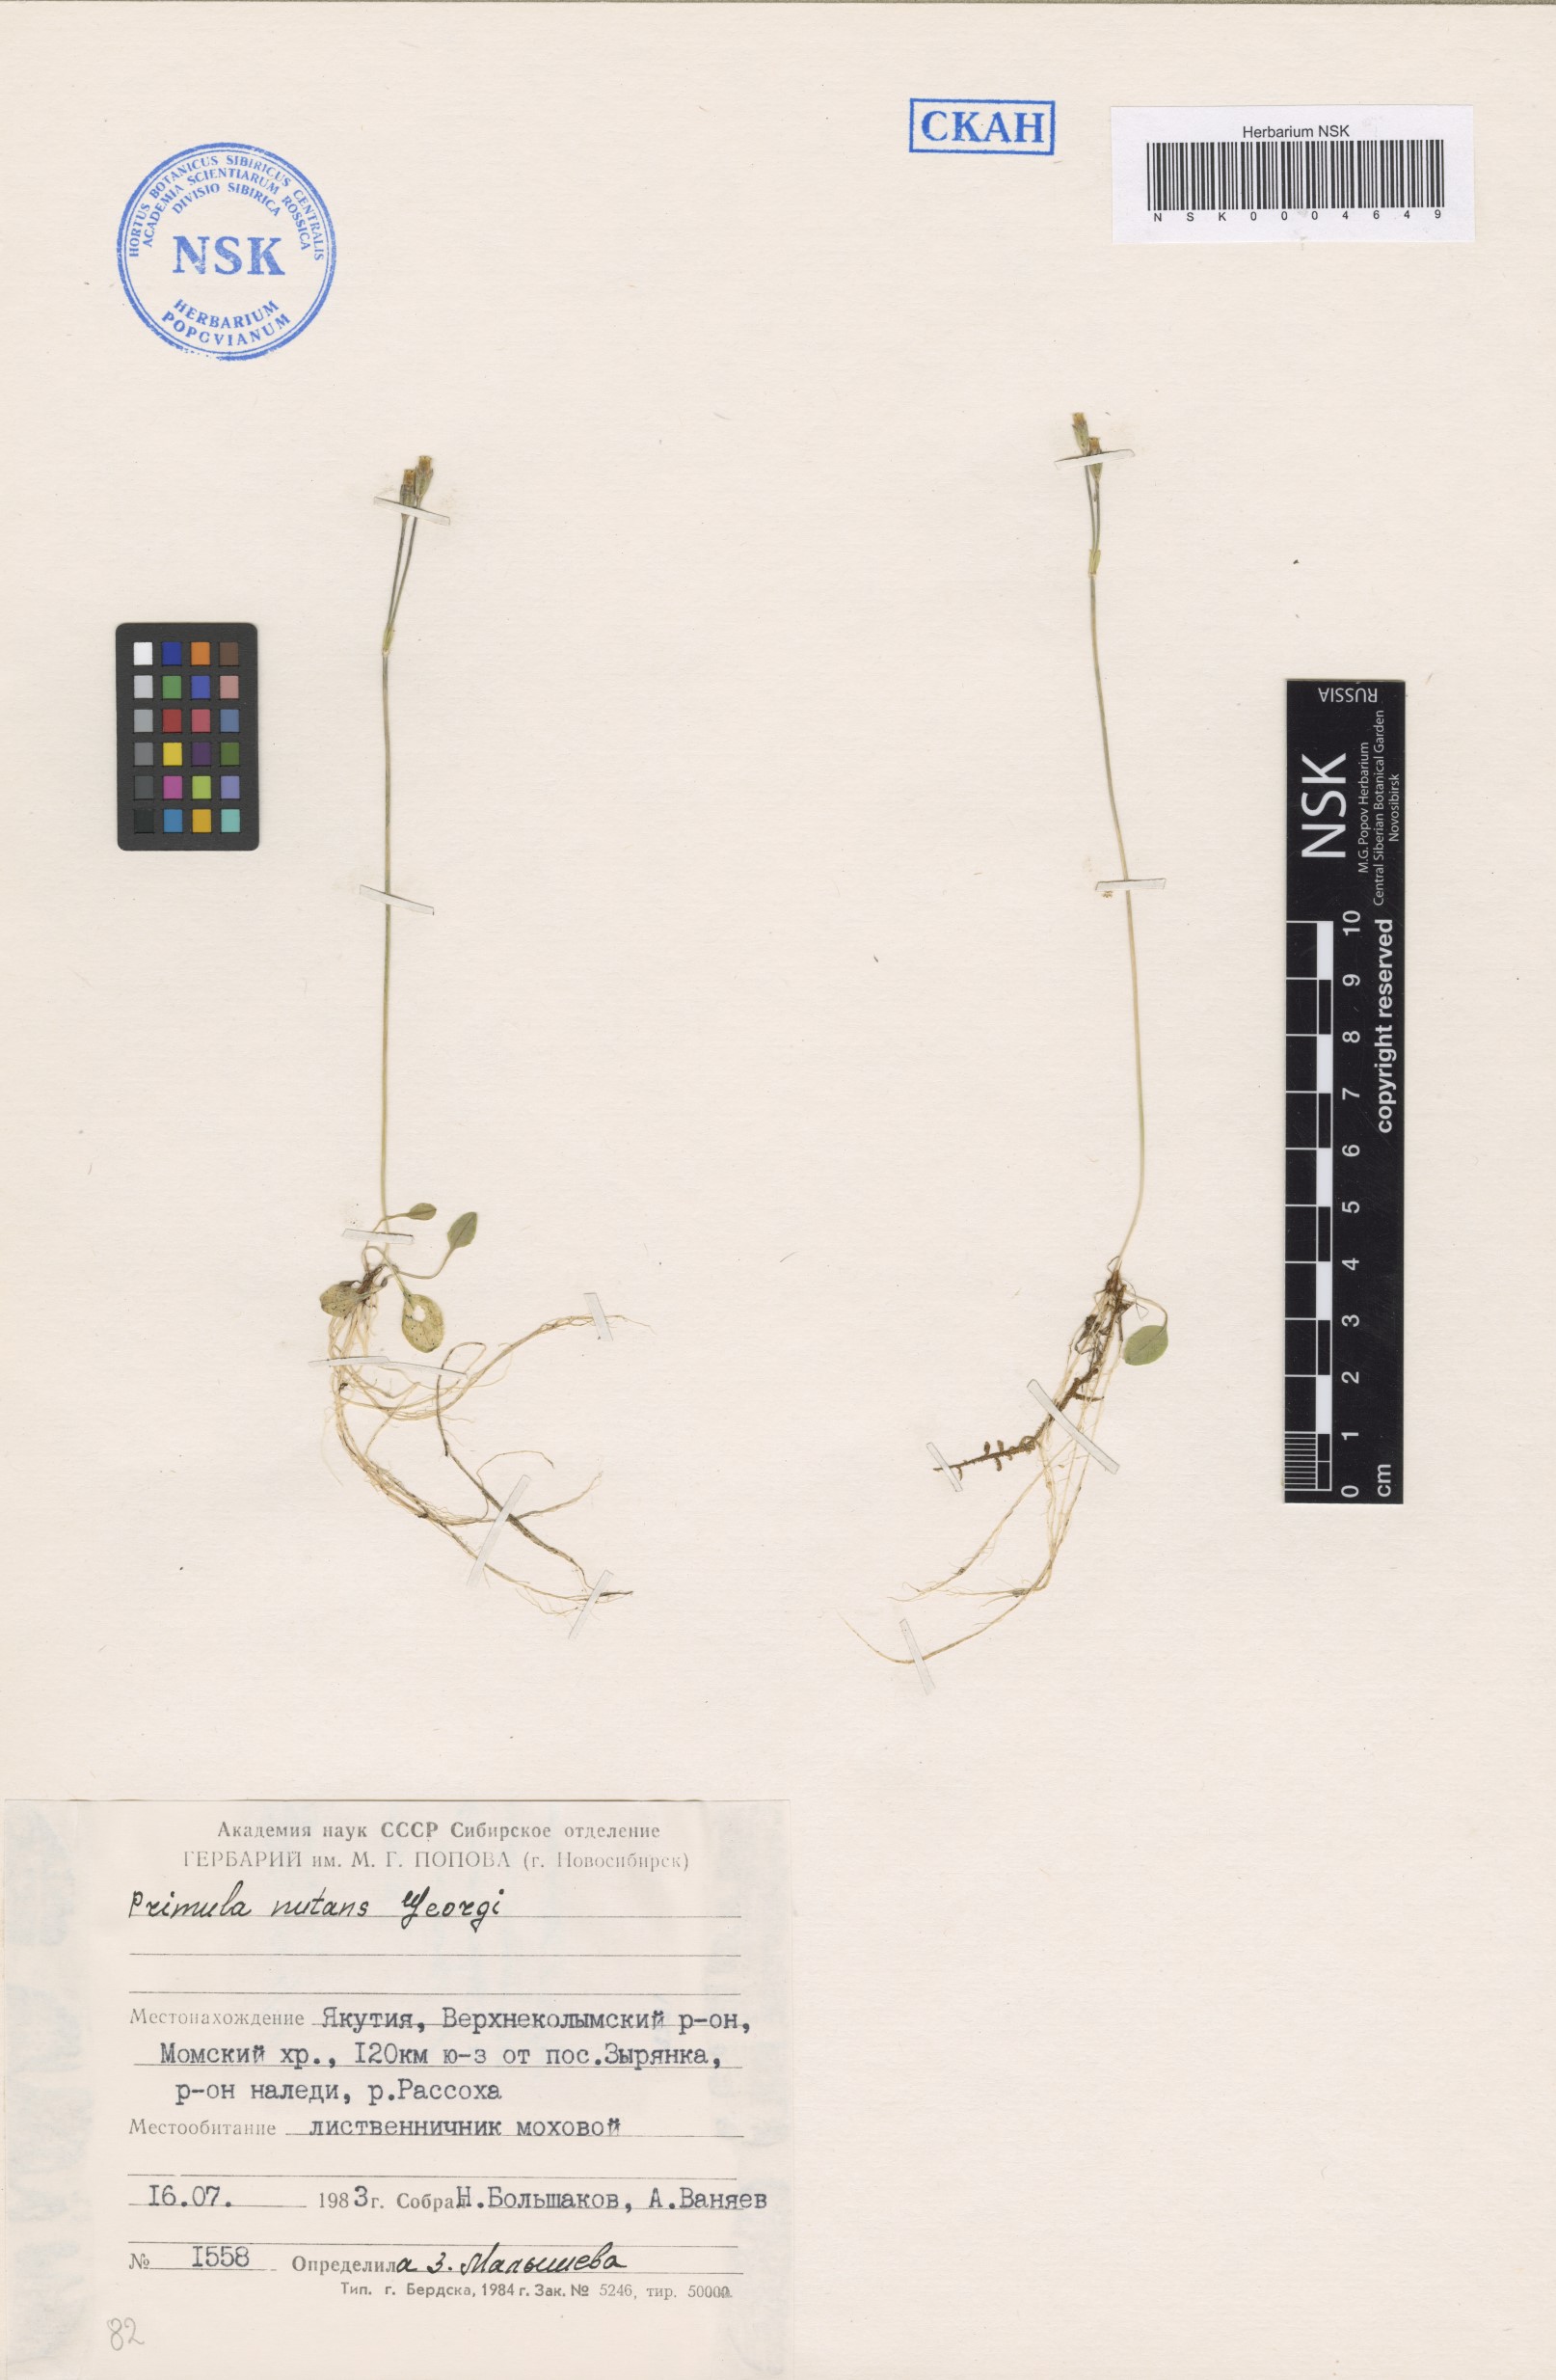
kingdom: Plantae
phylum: Tracheophyta
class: Magnoliopsida
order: Ericales
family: Primulaceae
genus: Primula
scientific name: Primula nutans
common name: Siberian primrose
